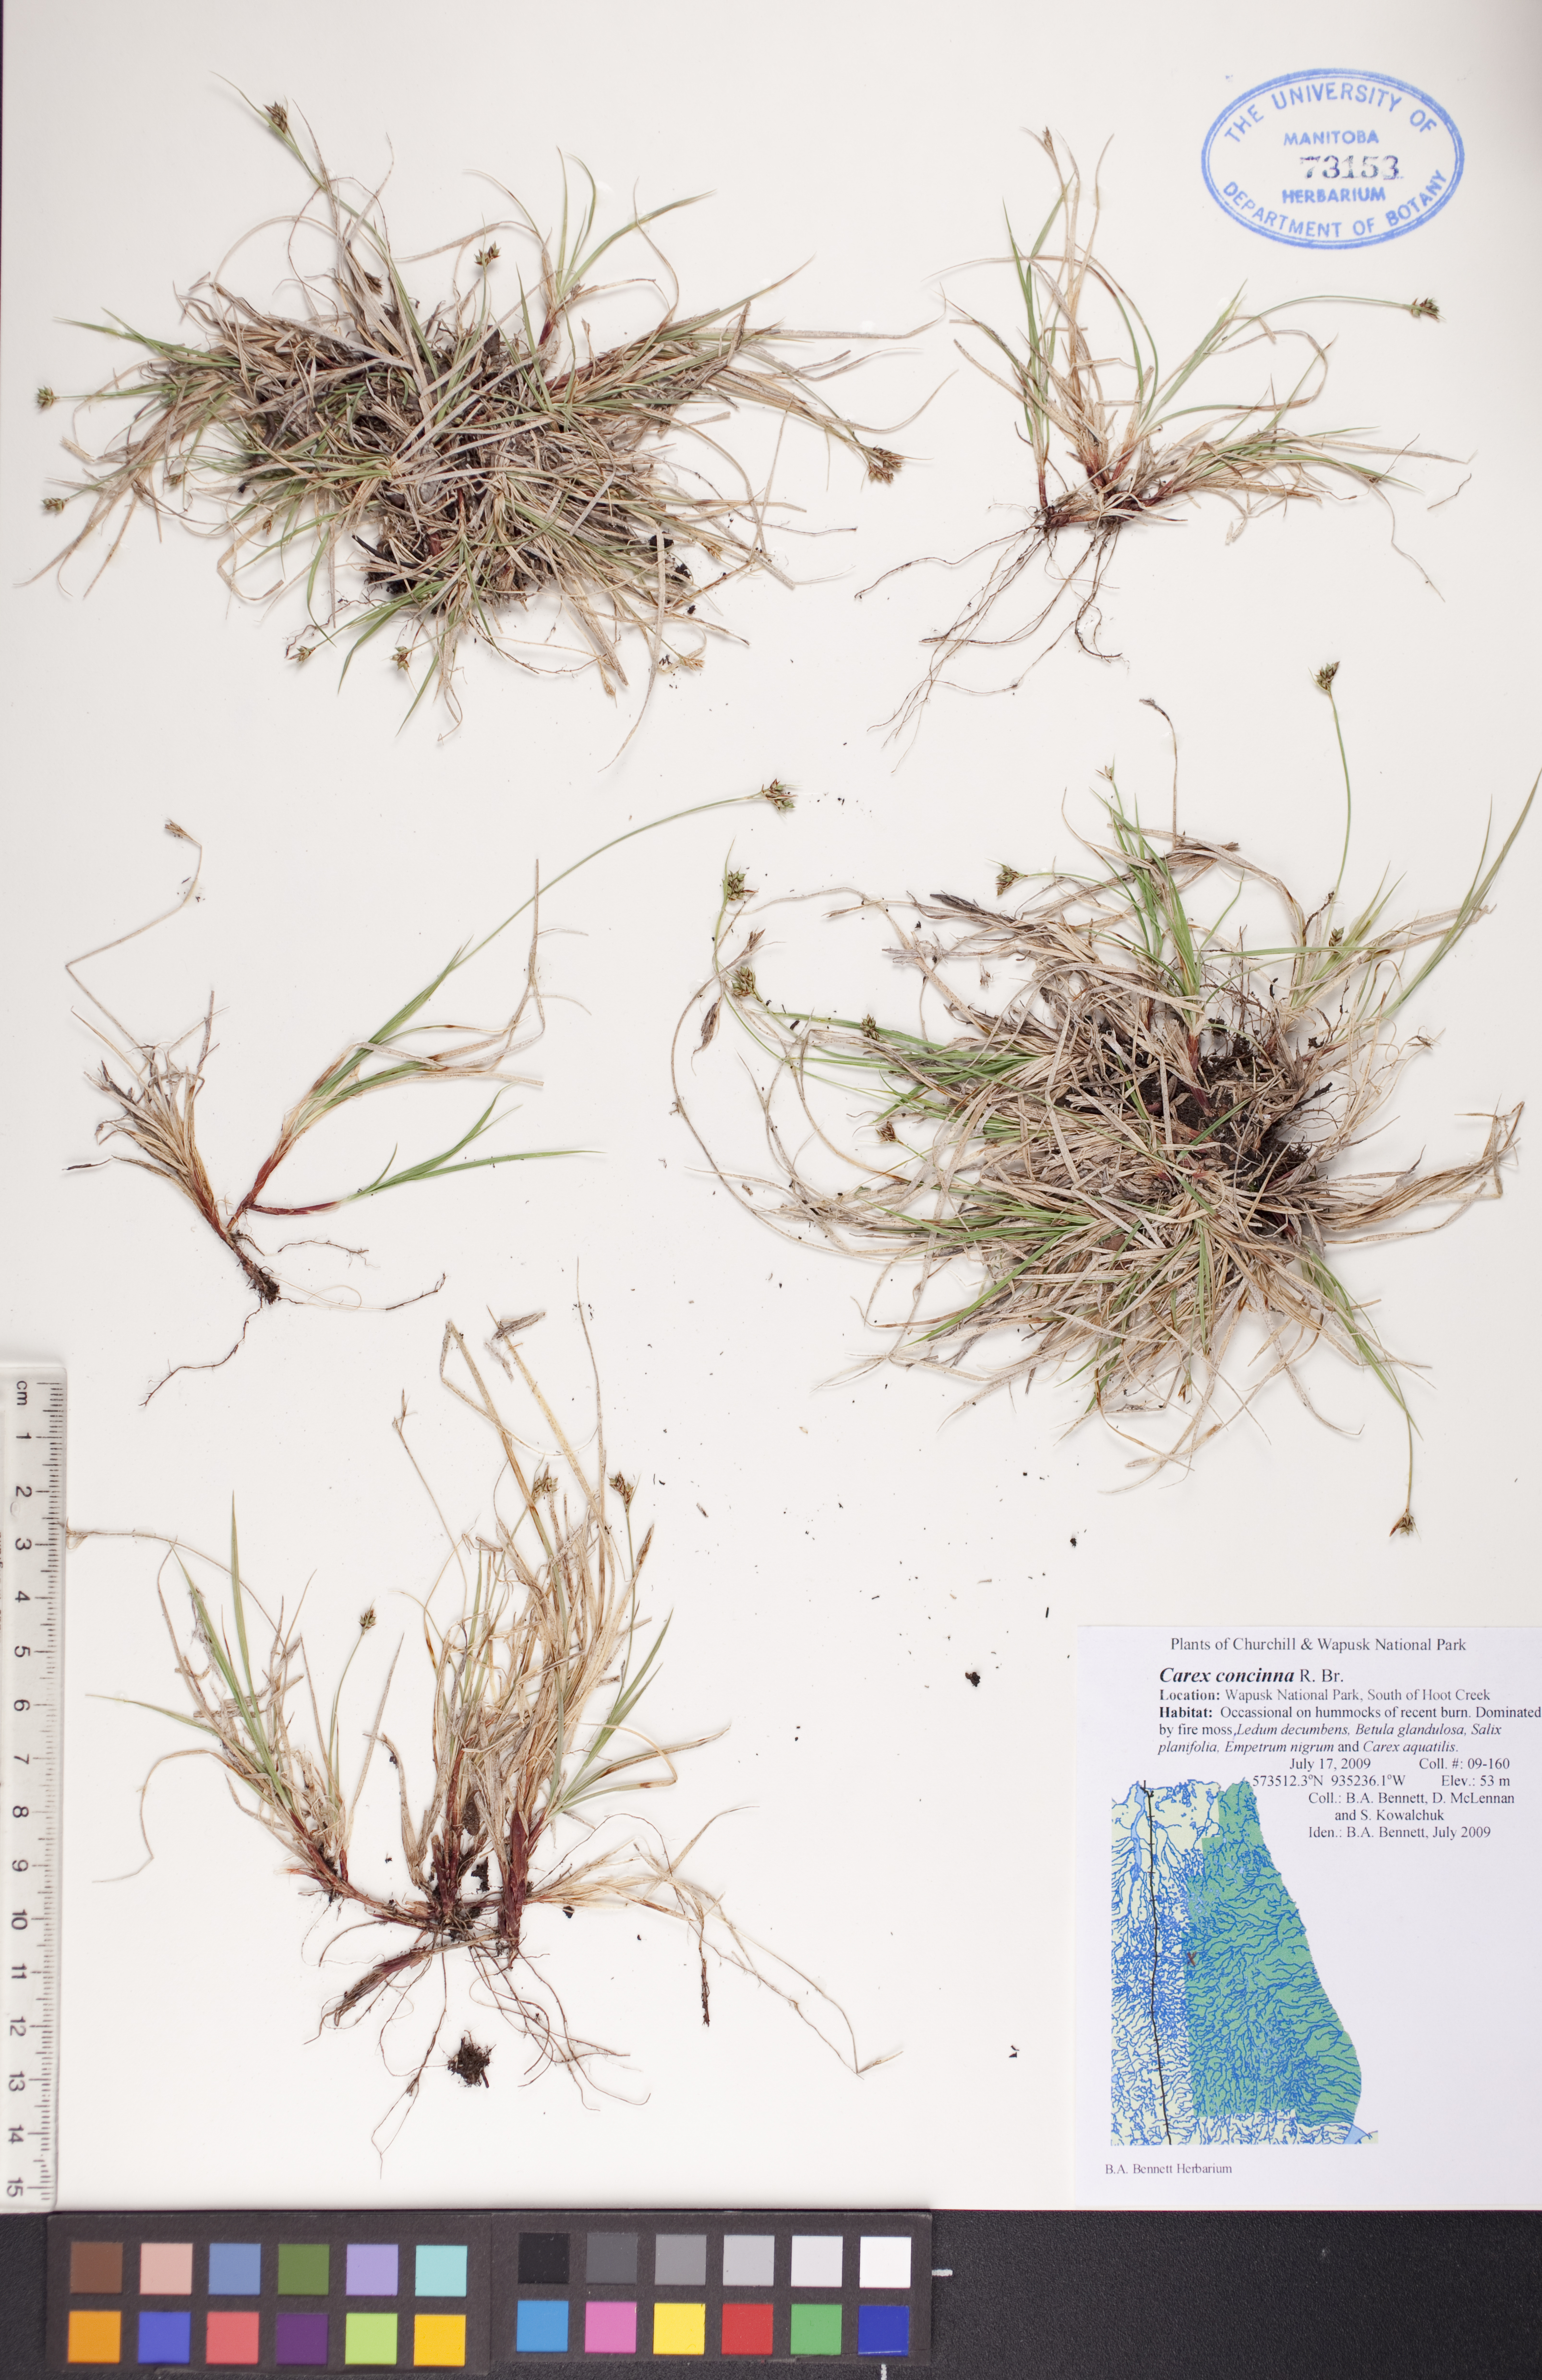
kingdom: Plantae
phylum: Tracheophyta
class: Liliopsida
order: Poales
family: Cyperaceae
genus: Carex
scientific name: Carex concinna
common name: Beautiful sedge
